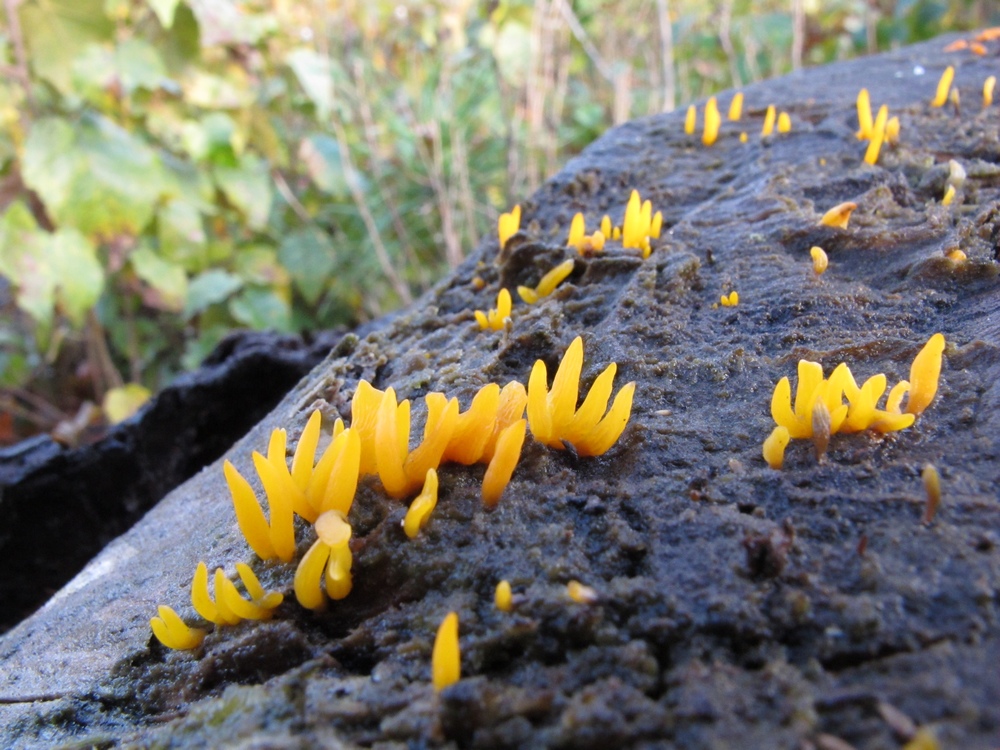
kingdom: Fungi
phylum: Basidiomycota
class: Dacrymycetes
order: Dacrymycetales
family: Dacrymycetaceae
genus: Calocera
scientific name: Calocera furcata
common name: fyrre-guldgaffel
